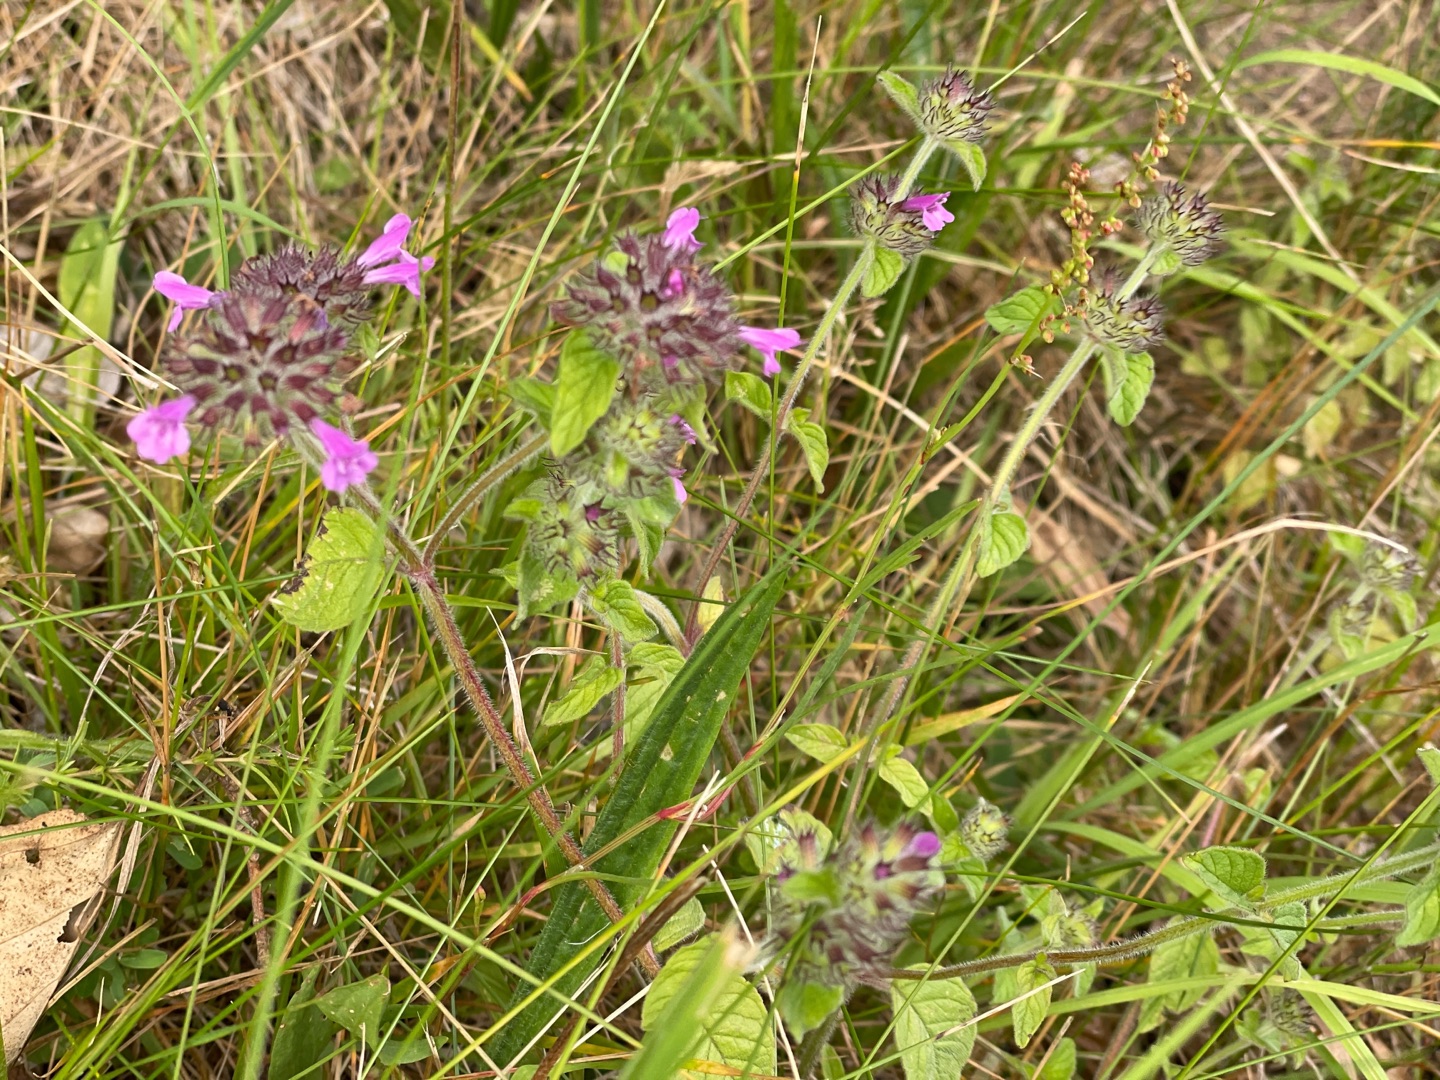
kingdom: Plantae
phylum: Tracheophyta
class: Magnoliopsida
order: Lamiales
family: Lamiaceae
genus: Clinopodium
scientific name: Clinopodium vulgare
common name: Kransbørste
